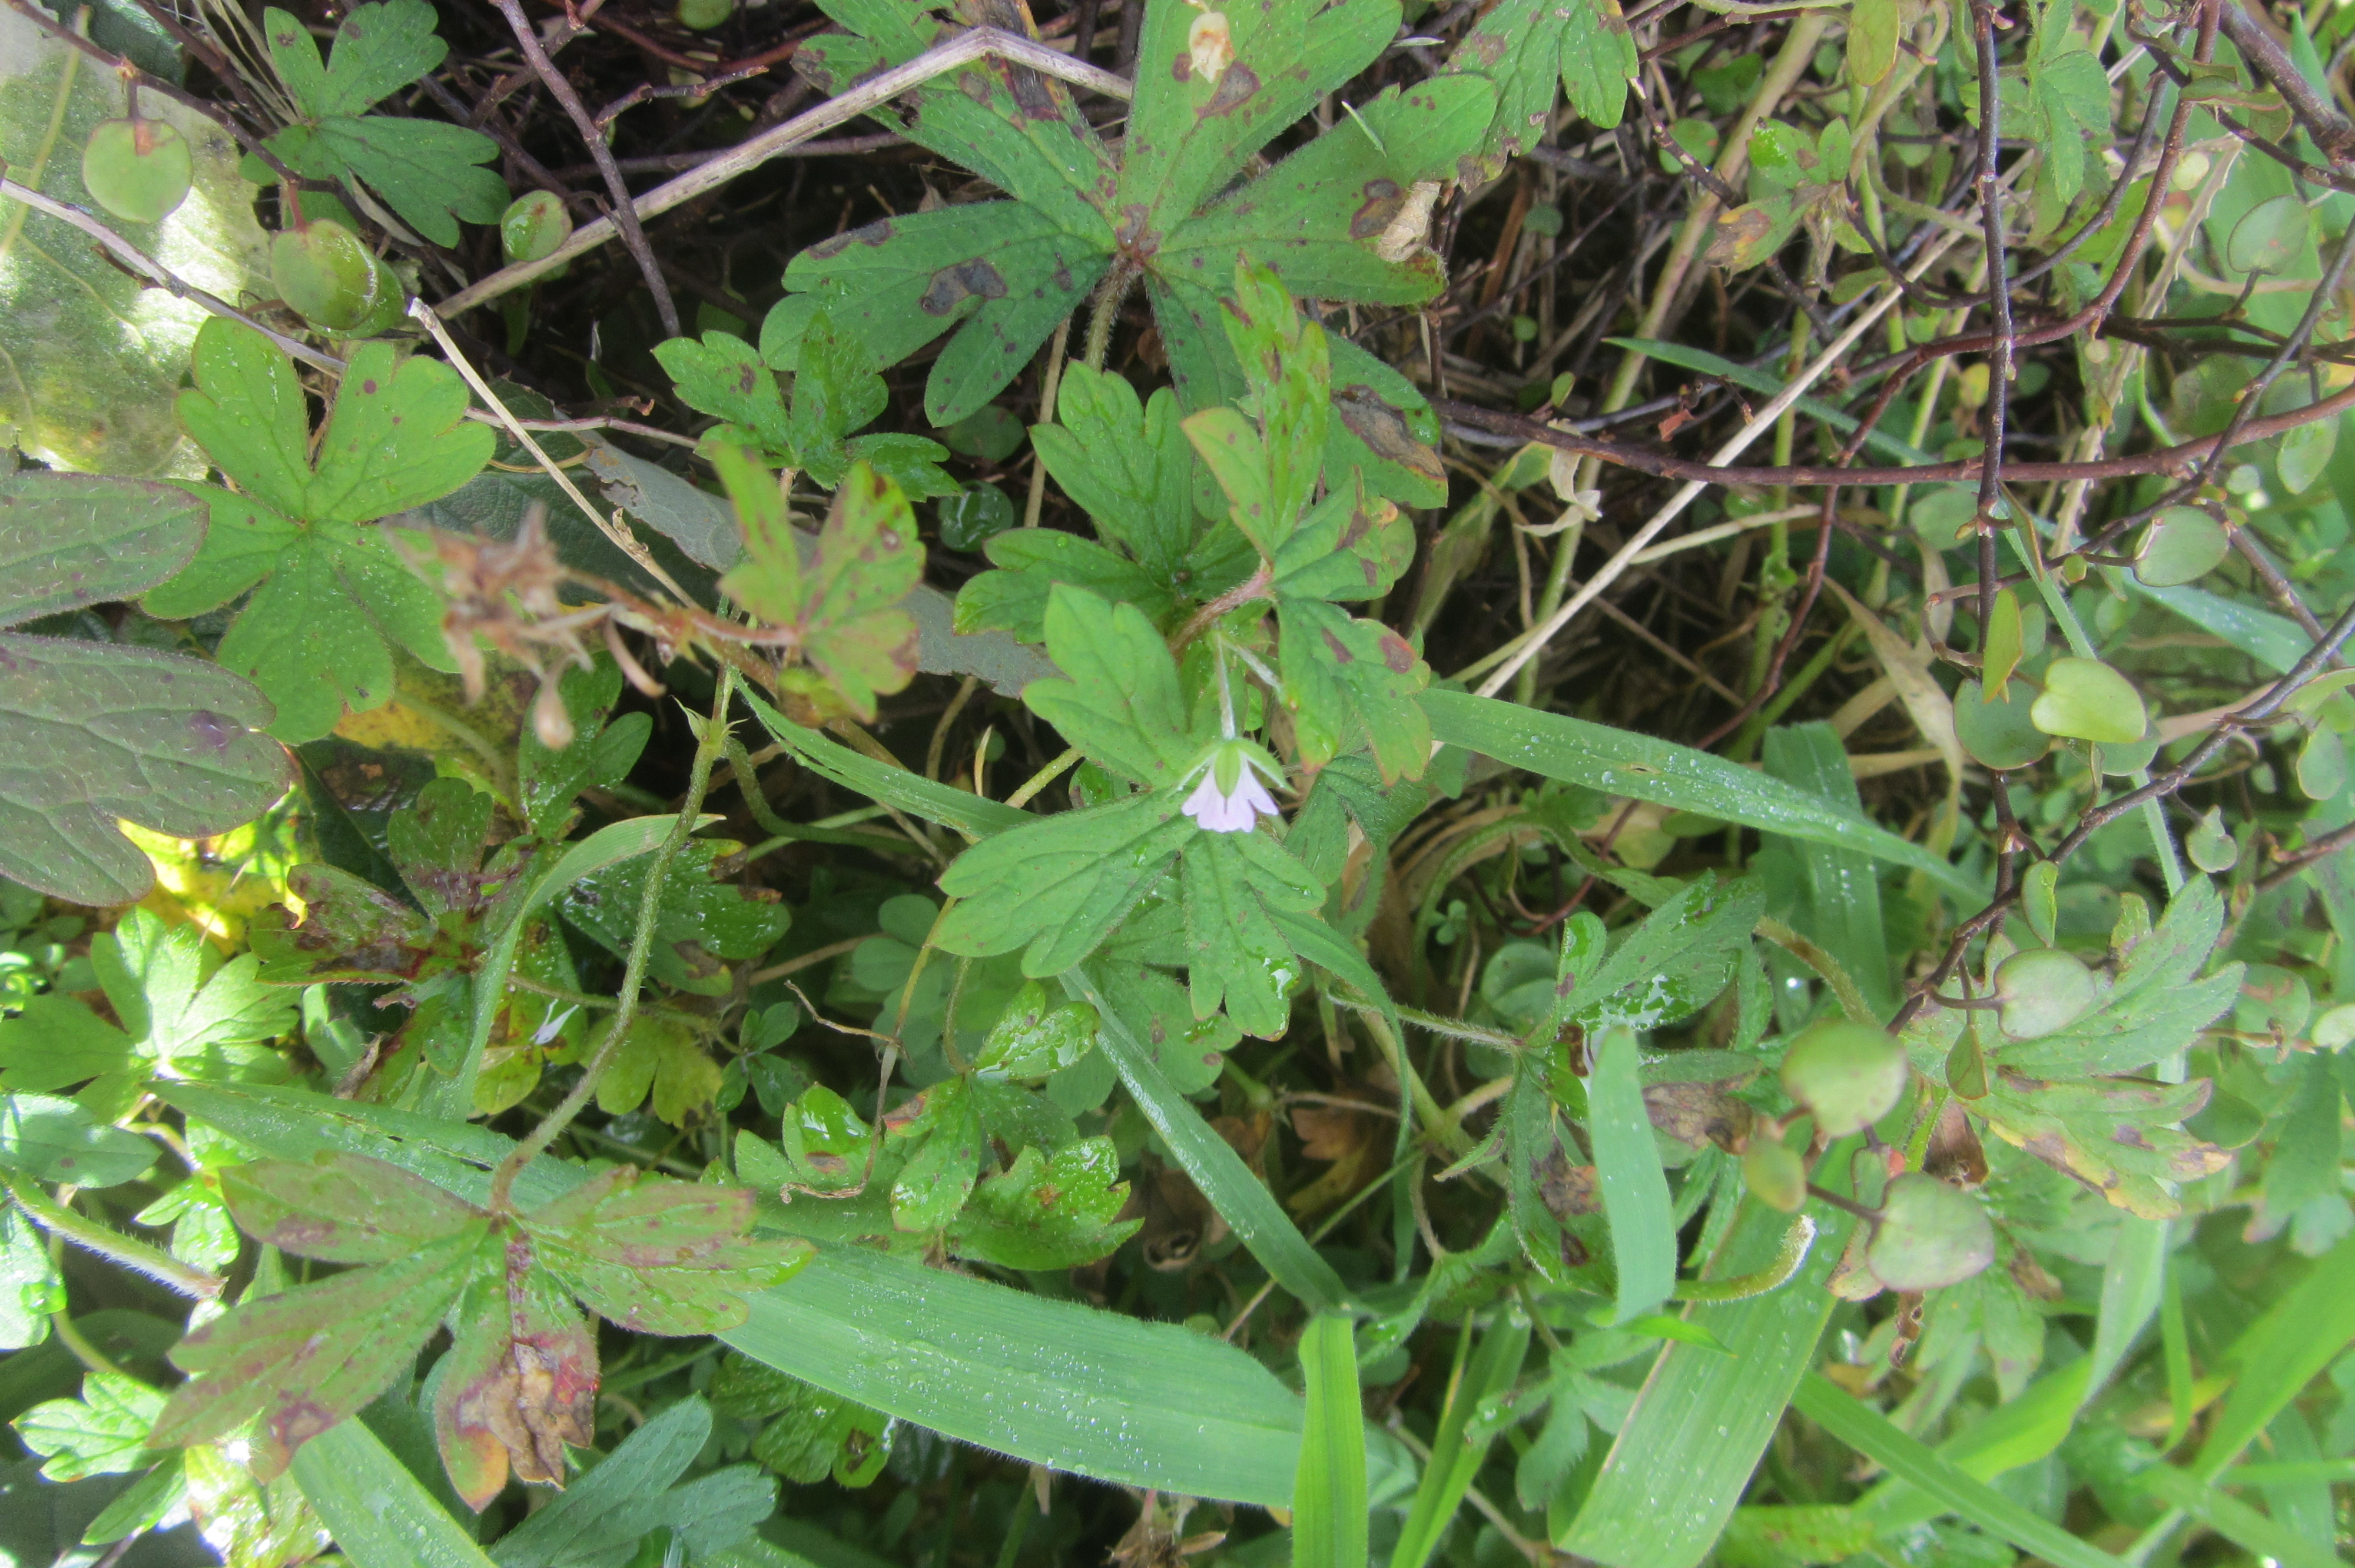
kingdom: Plantae
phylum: Tracheophyta
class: Magnoliopsida
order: Geraniales
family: Geraniaceae
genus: Geranium
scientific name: Geranium solanderi
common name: Solander's geranium
